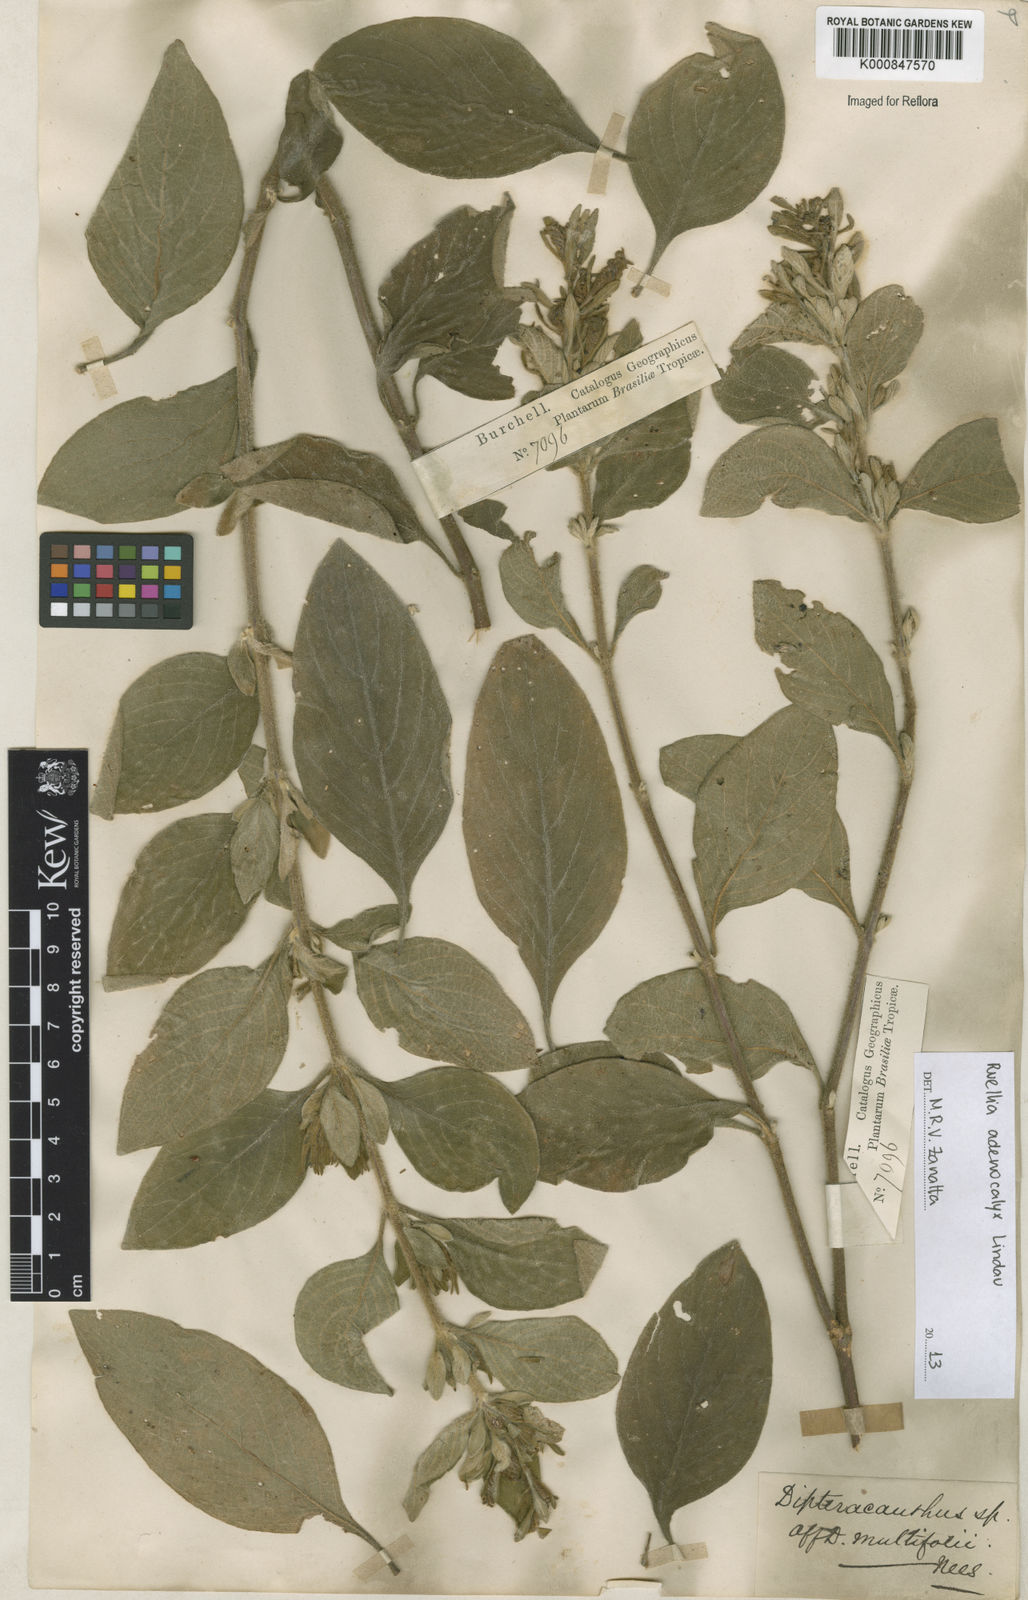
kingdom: Plantae
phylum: Tracheophyta
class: Magnoliopsida
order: Lamiales
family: Acanthaceae
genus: Ruellia
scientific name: Ruellia adenocalyx
